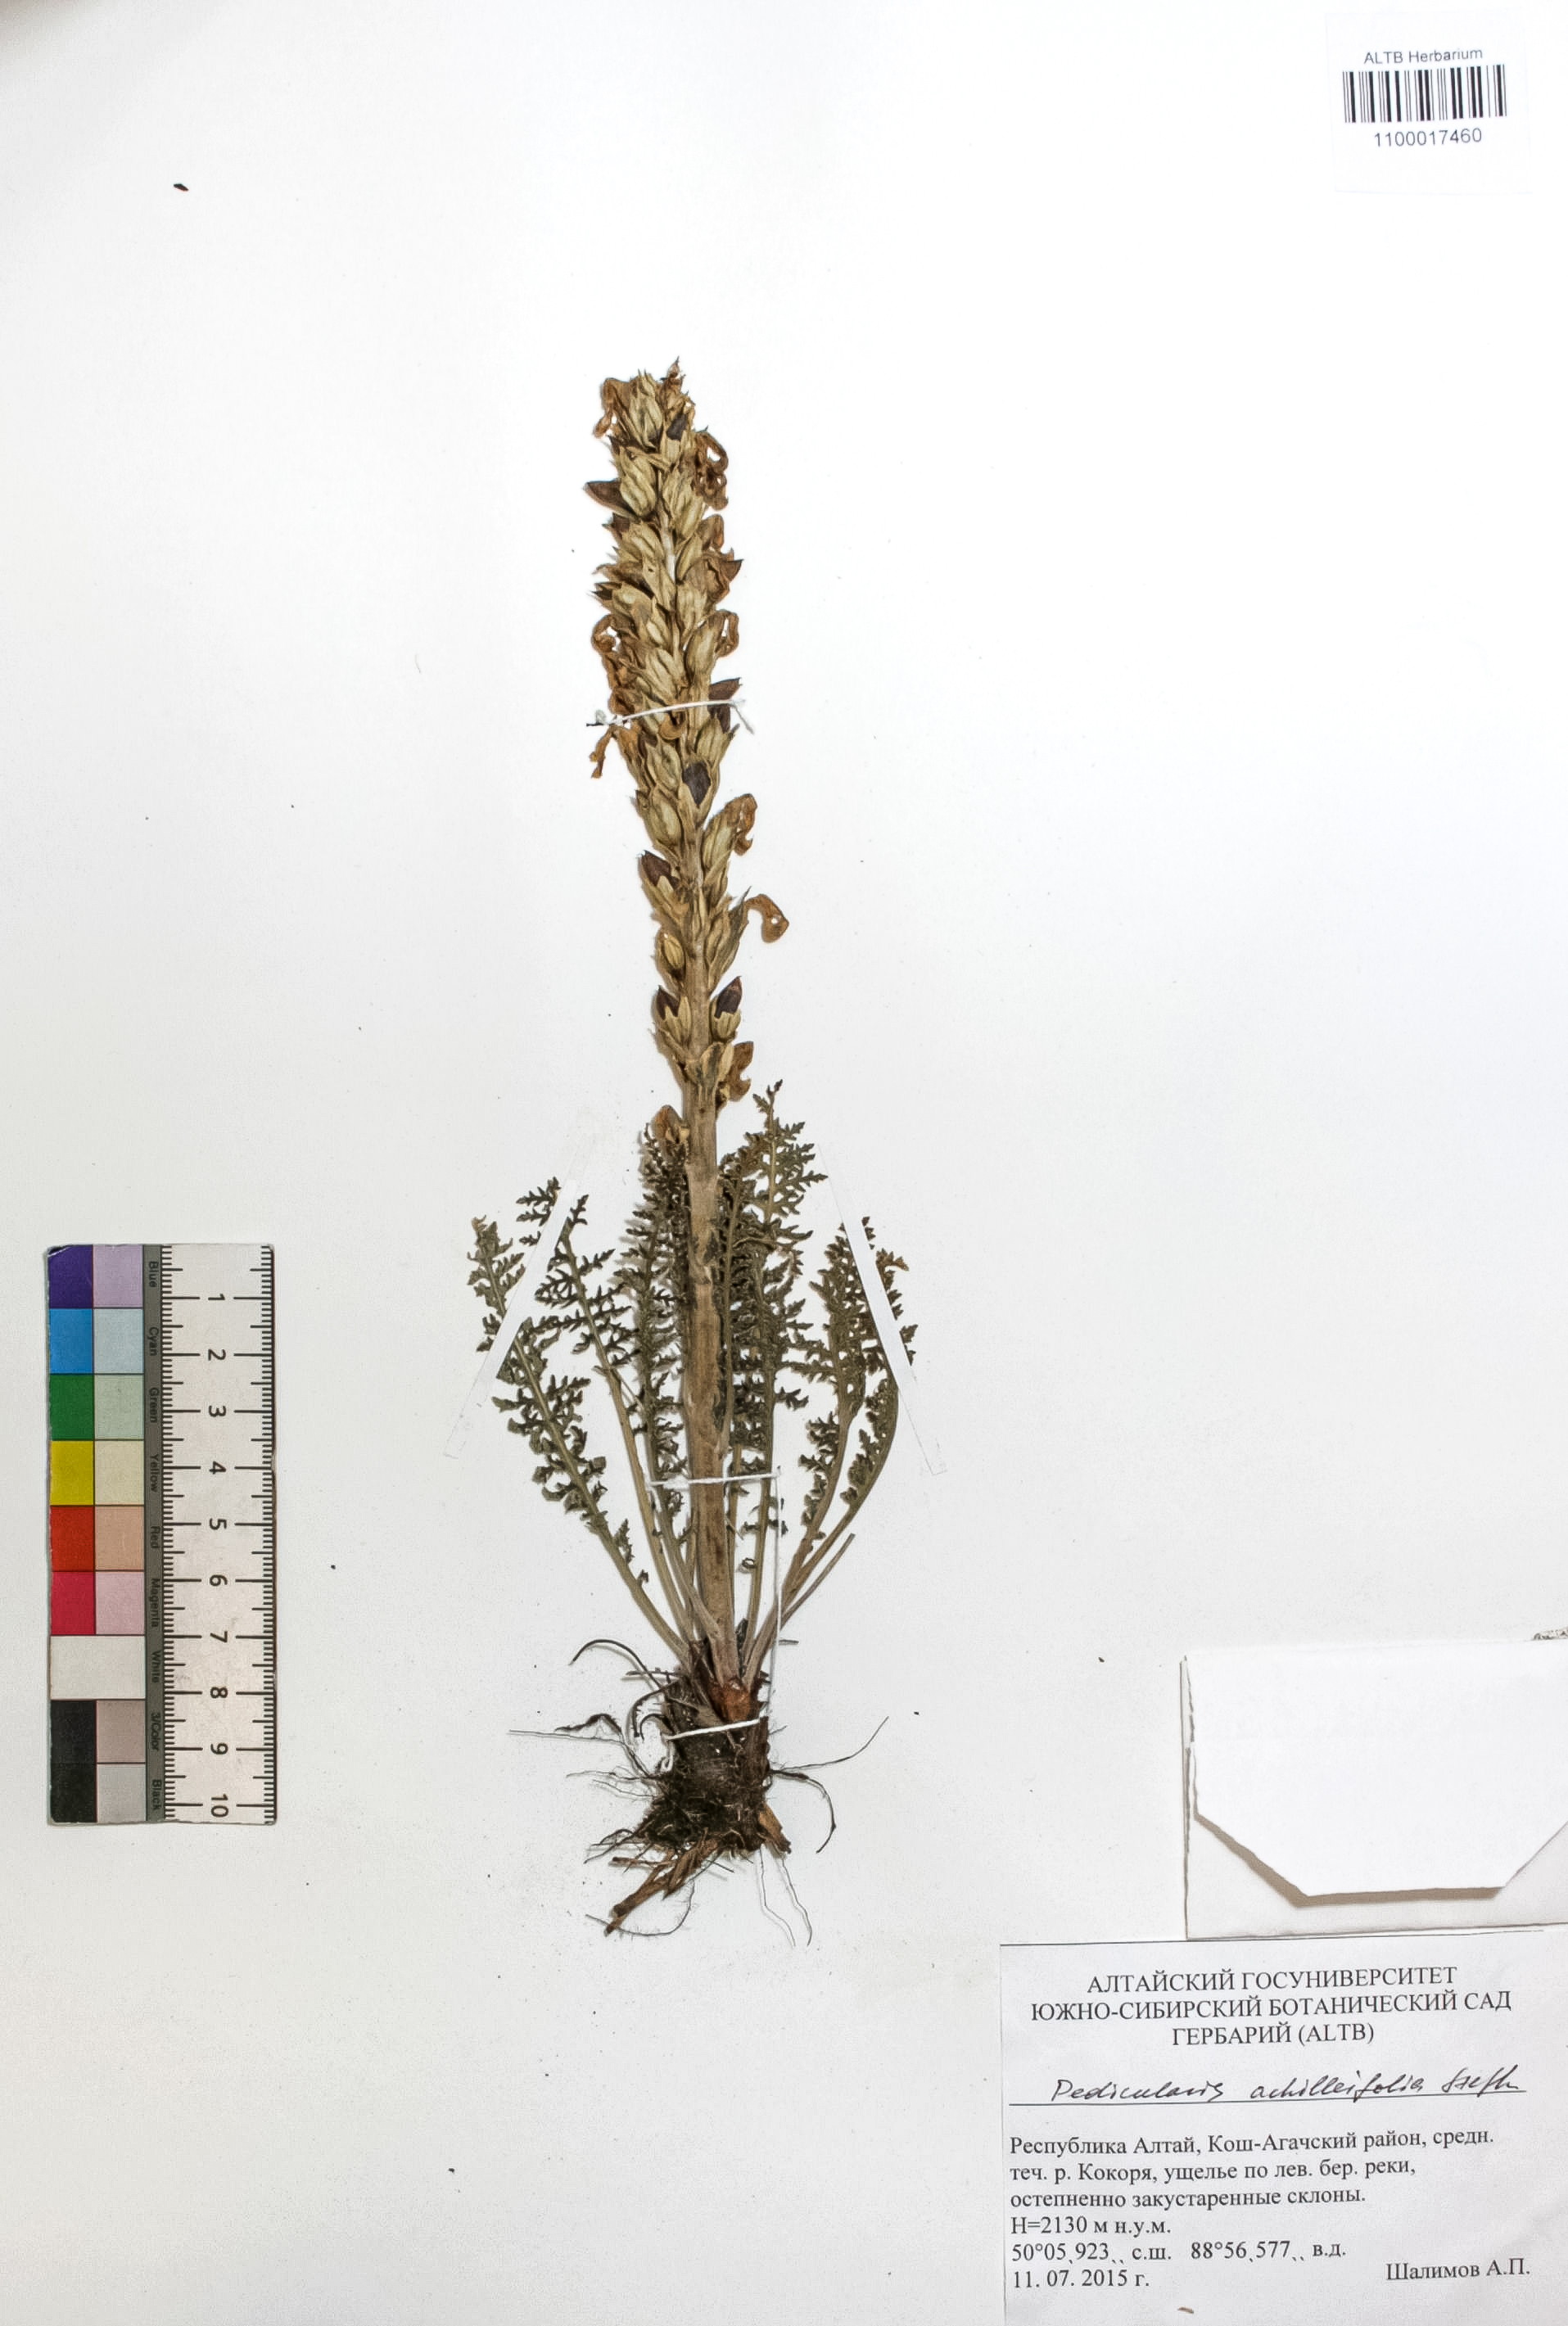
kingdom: Plantae
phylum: Tracheophyta
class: Magnoliopsida
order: Lamiales
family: Orobanchaceae
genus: Pedicularis
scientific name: Pedicularis achilleifolia
